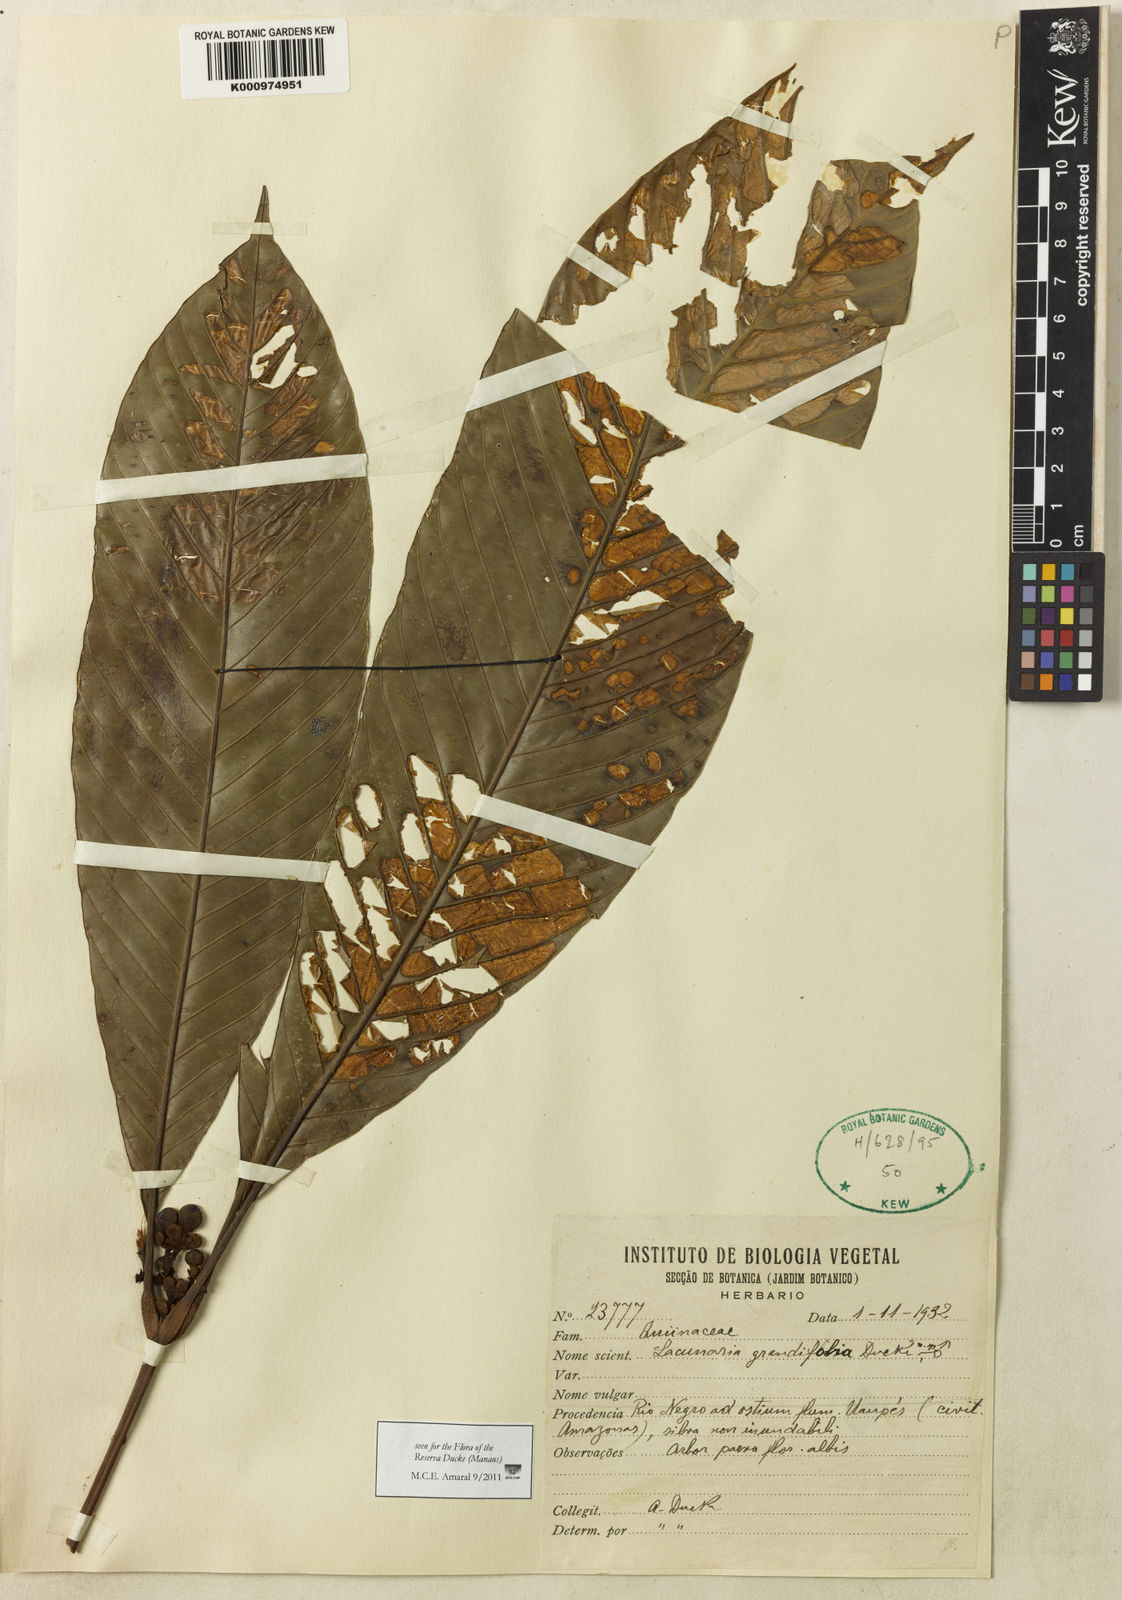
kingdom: Plantae
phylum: Tracheophyta
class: Magnoliopsida
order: Malpighiales
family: Quiinaceae
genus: Lacunaria
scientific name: Lacunaria grandifolia
